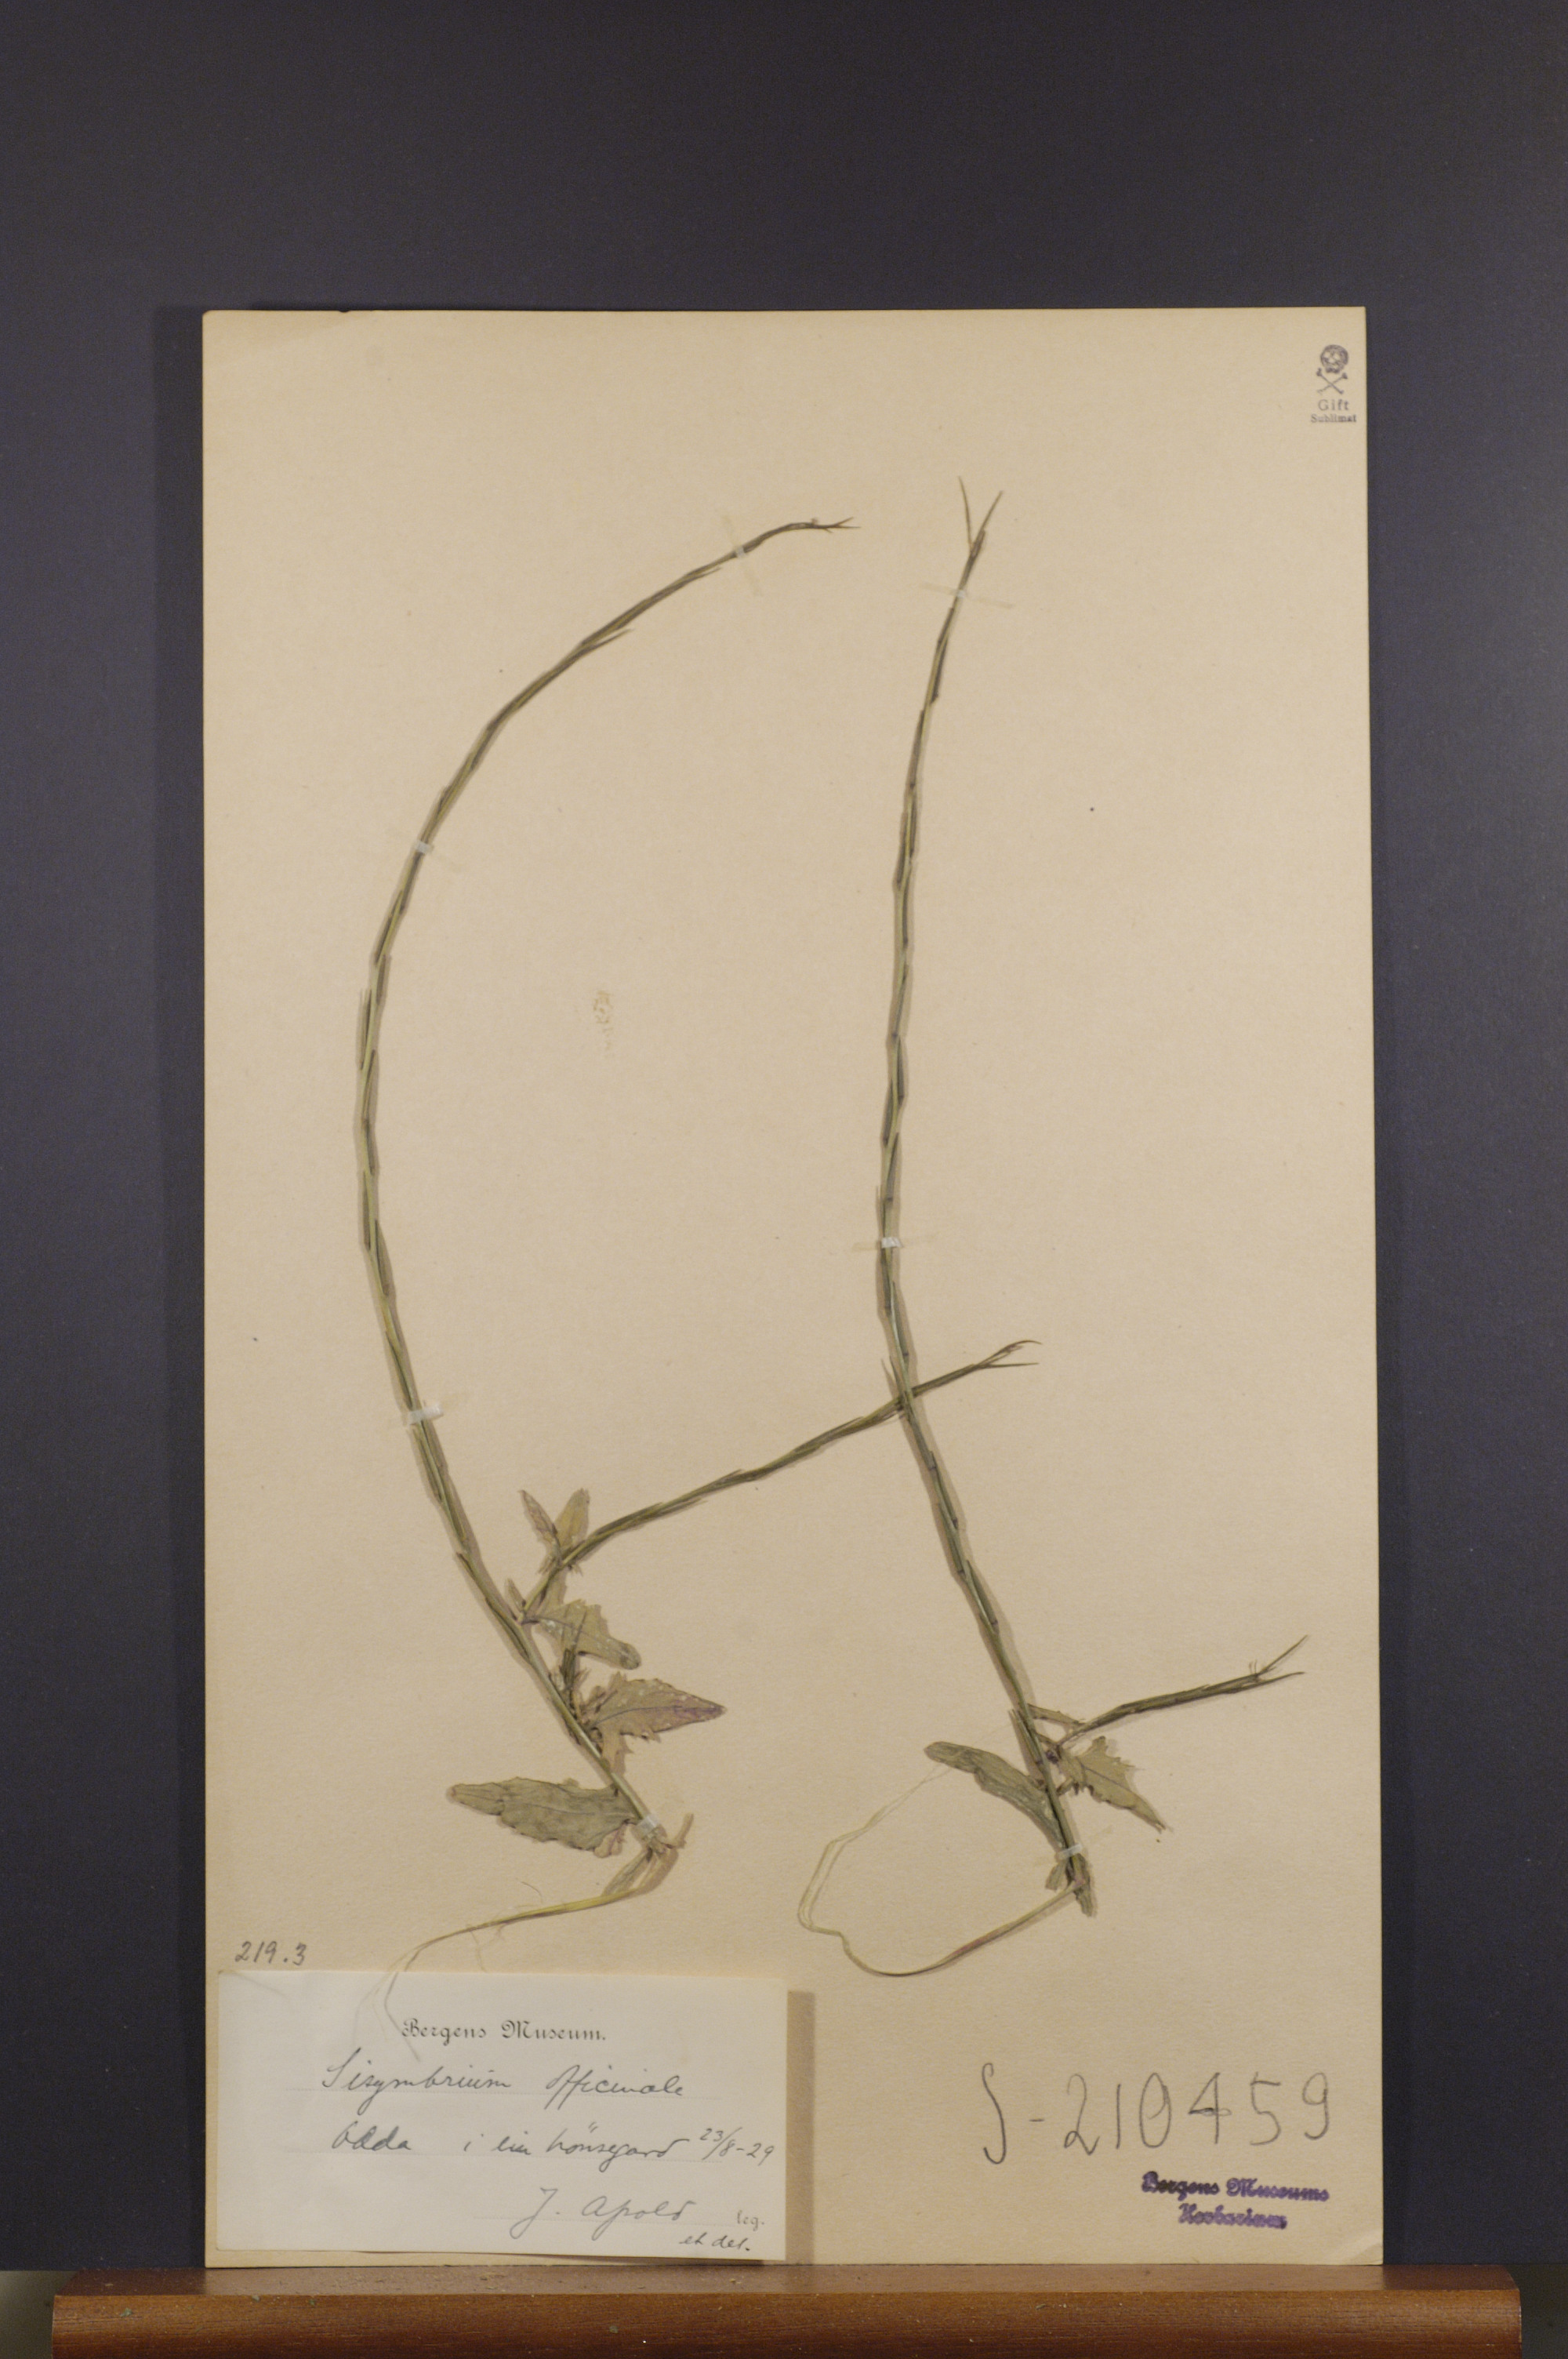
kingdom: Plantae
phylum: Tracheophyta
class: Magnoliopsida
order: Brassicales
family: Brassicaceae
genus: Sisymbrium
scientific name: Sisymbrium officinale
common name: Hedge mustard
